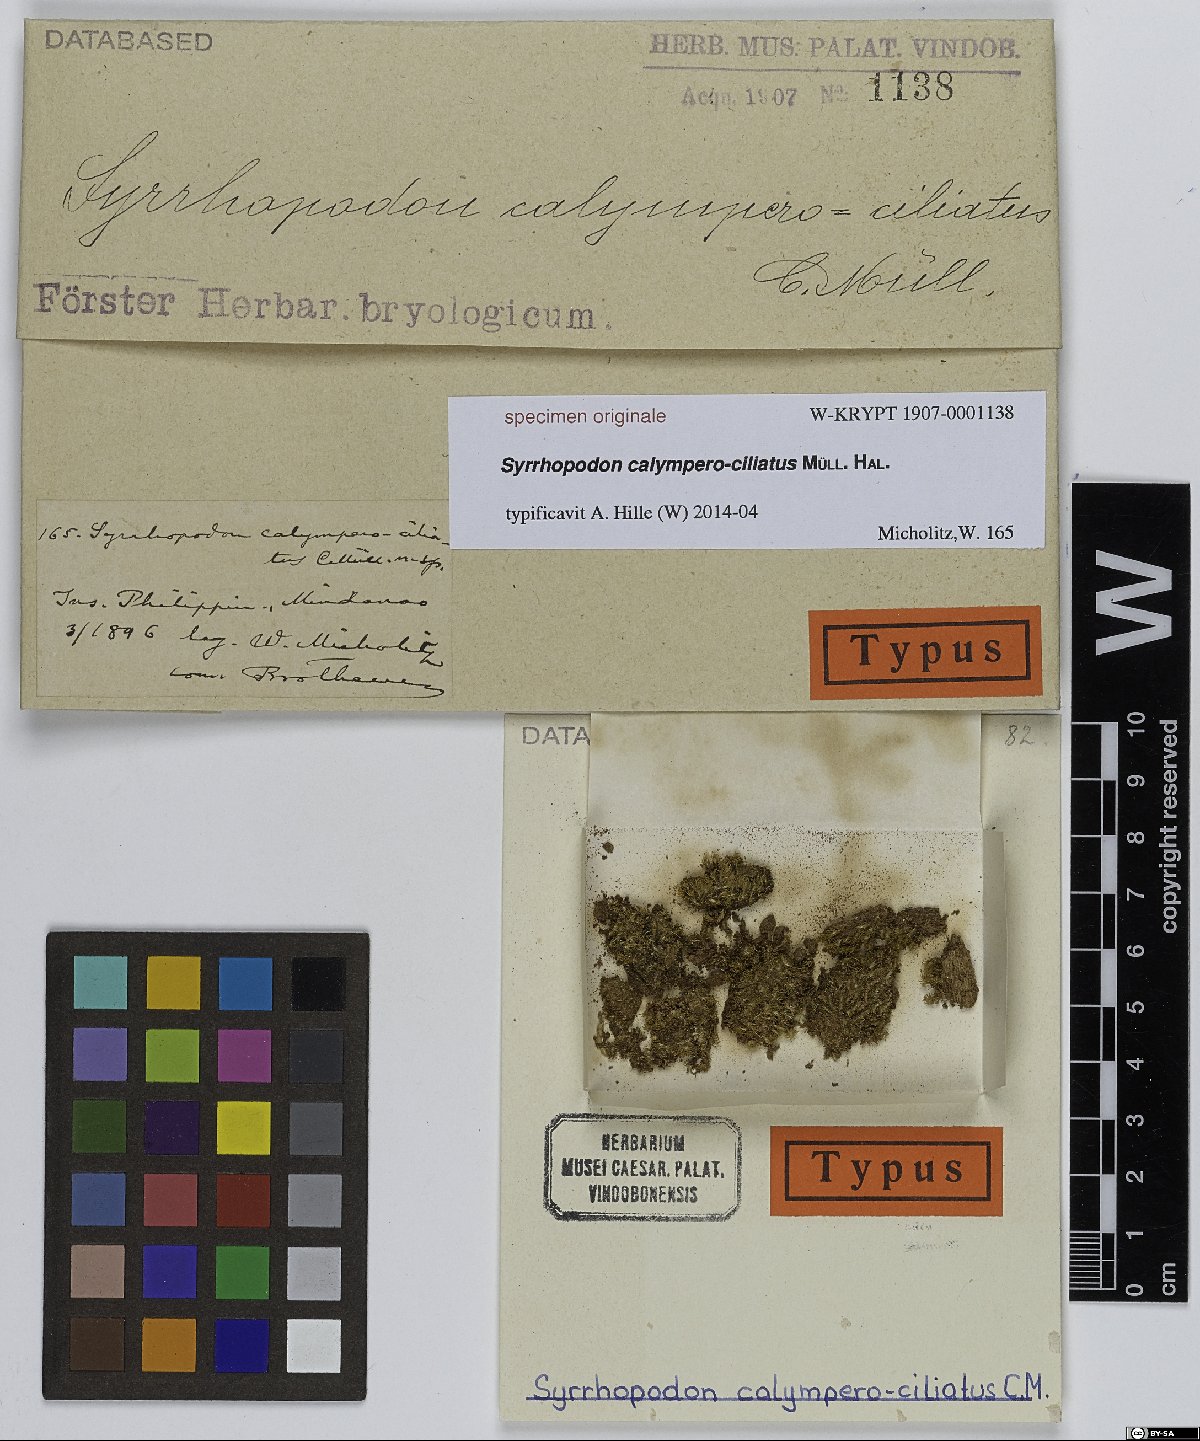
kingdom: Plantae
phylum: Bryophyta
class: Bryopsida
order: Dicranales
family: Calymperaceae
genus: Syrrhopodon
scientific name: Syrrhopodon
